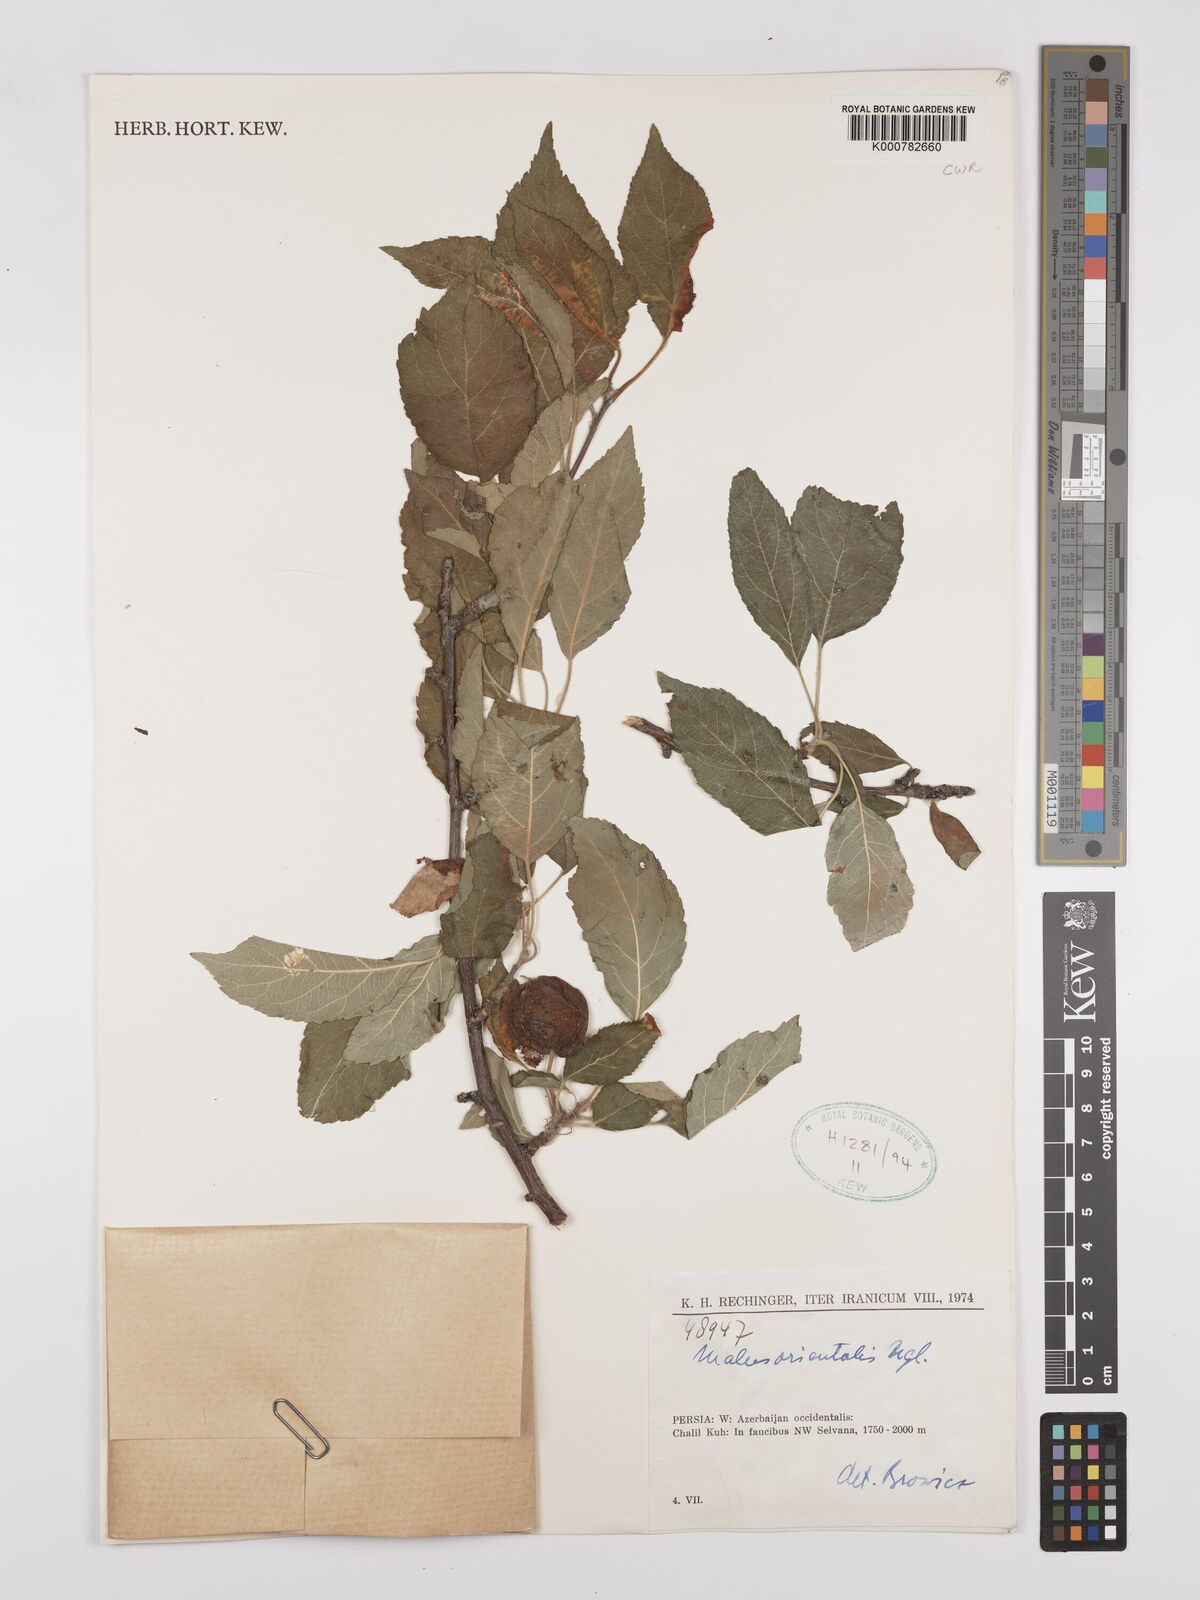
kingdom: Plantae
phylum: Tracheophyta
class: Magnoliopsida
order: Rosales
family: Rosaceae
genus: Malus
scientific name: Malus orientalis
